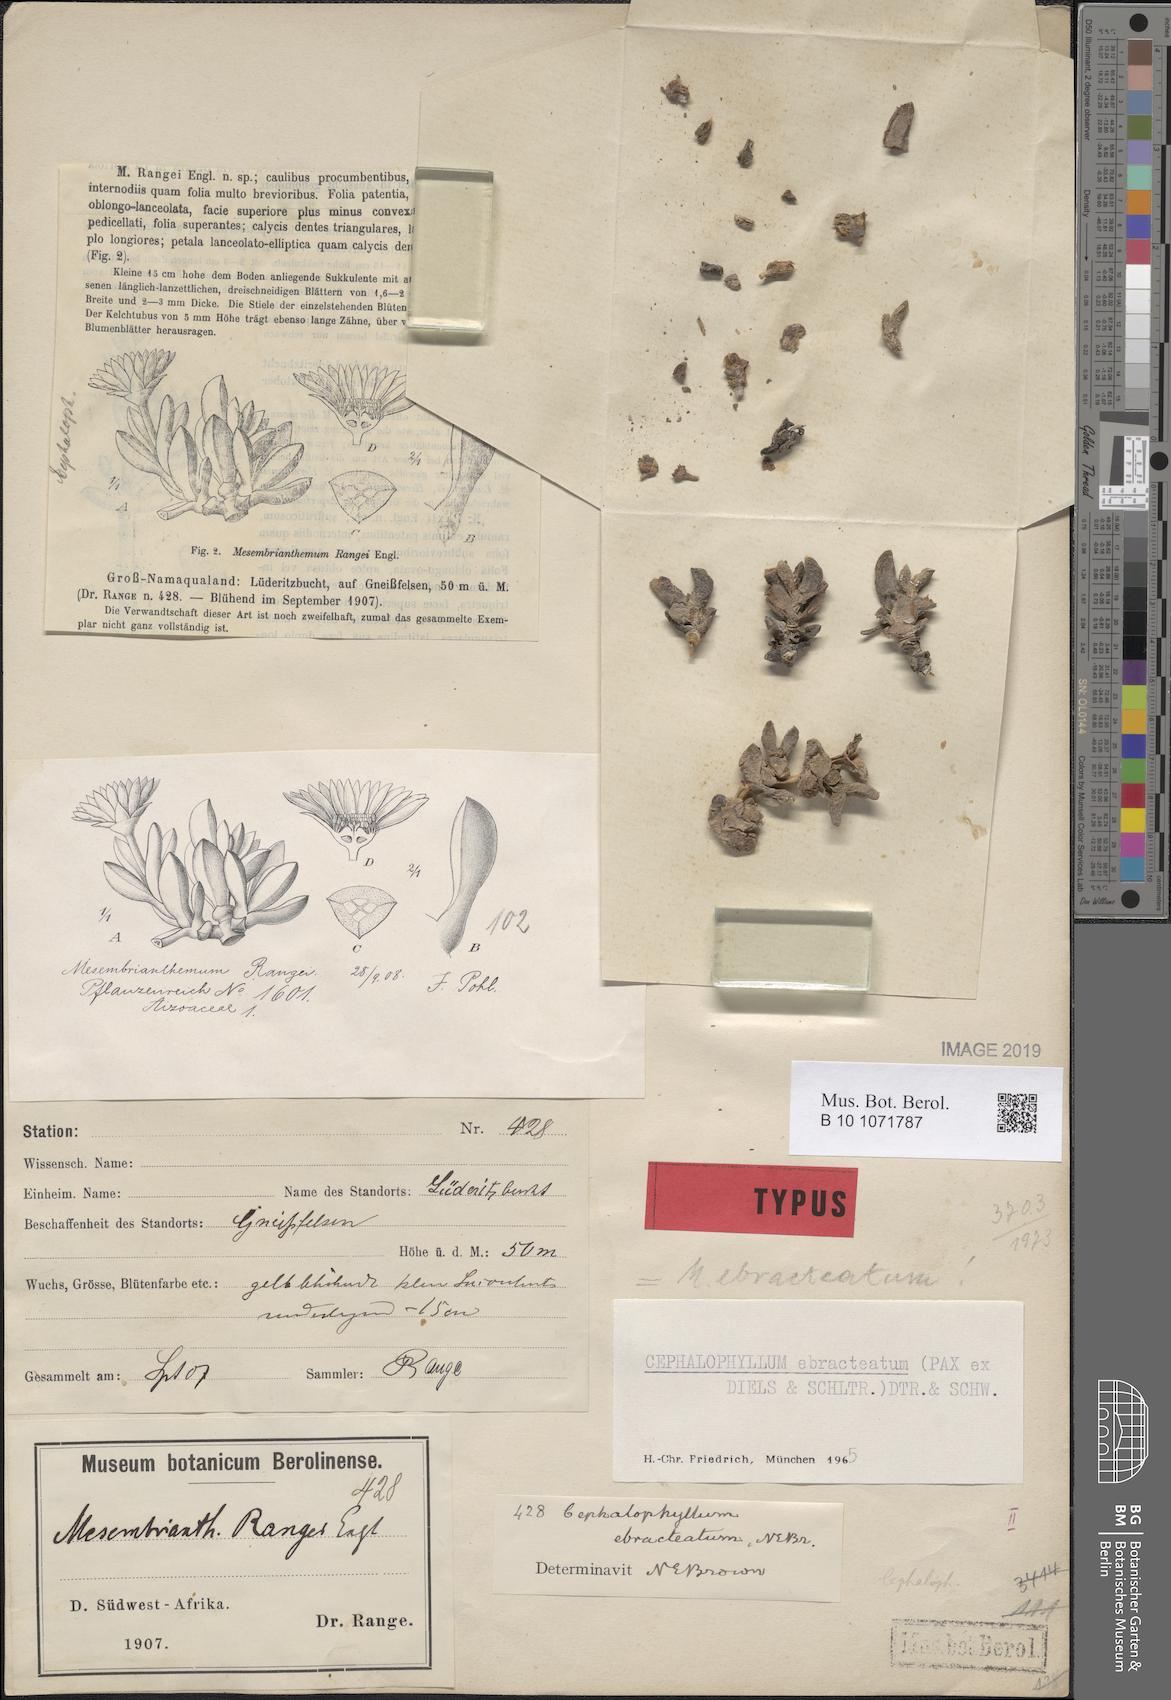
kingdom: Plantae
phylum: Tracheophyta
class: Magnoliopsida
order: Caryophyllales
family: Aizoaceae
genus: Cephalophyllum
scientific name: Cephalophyllum ebracteatum
